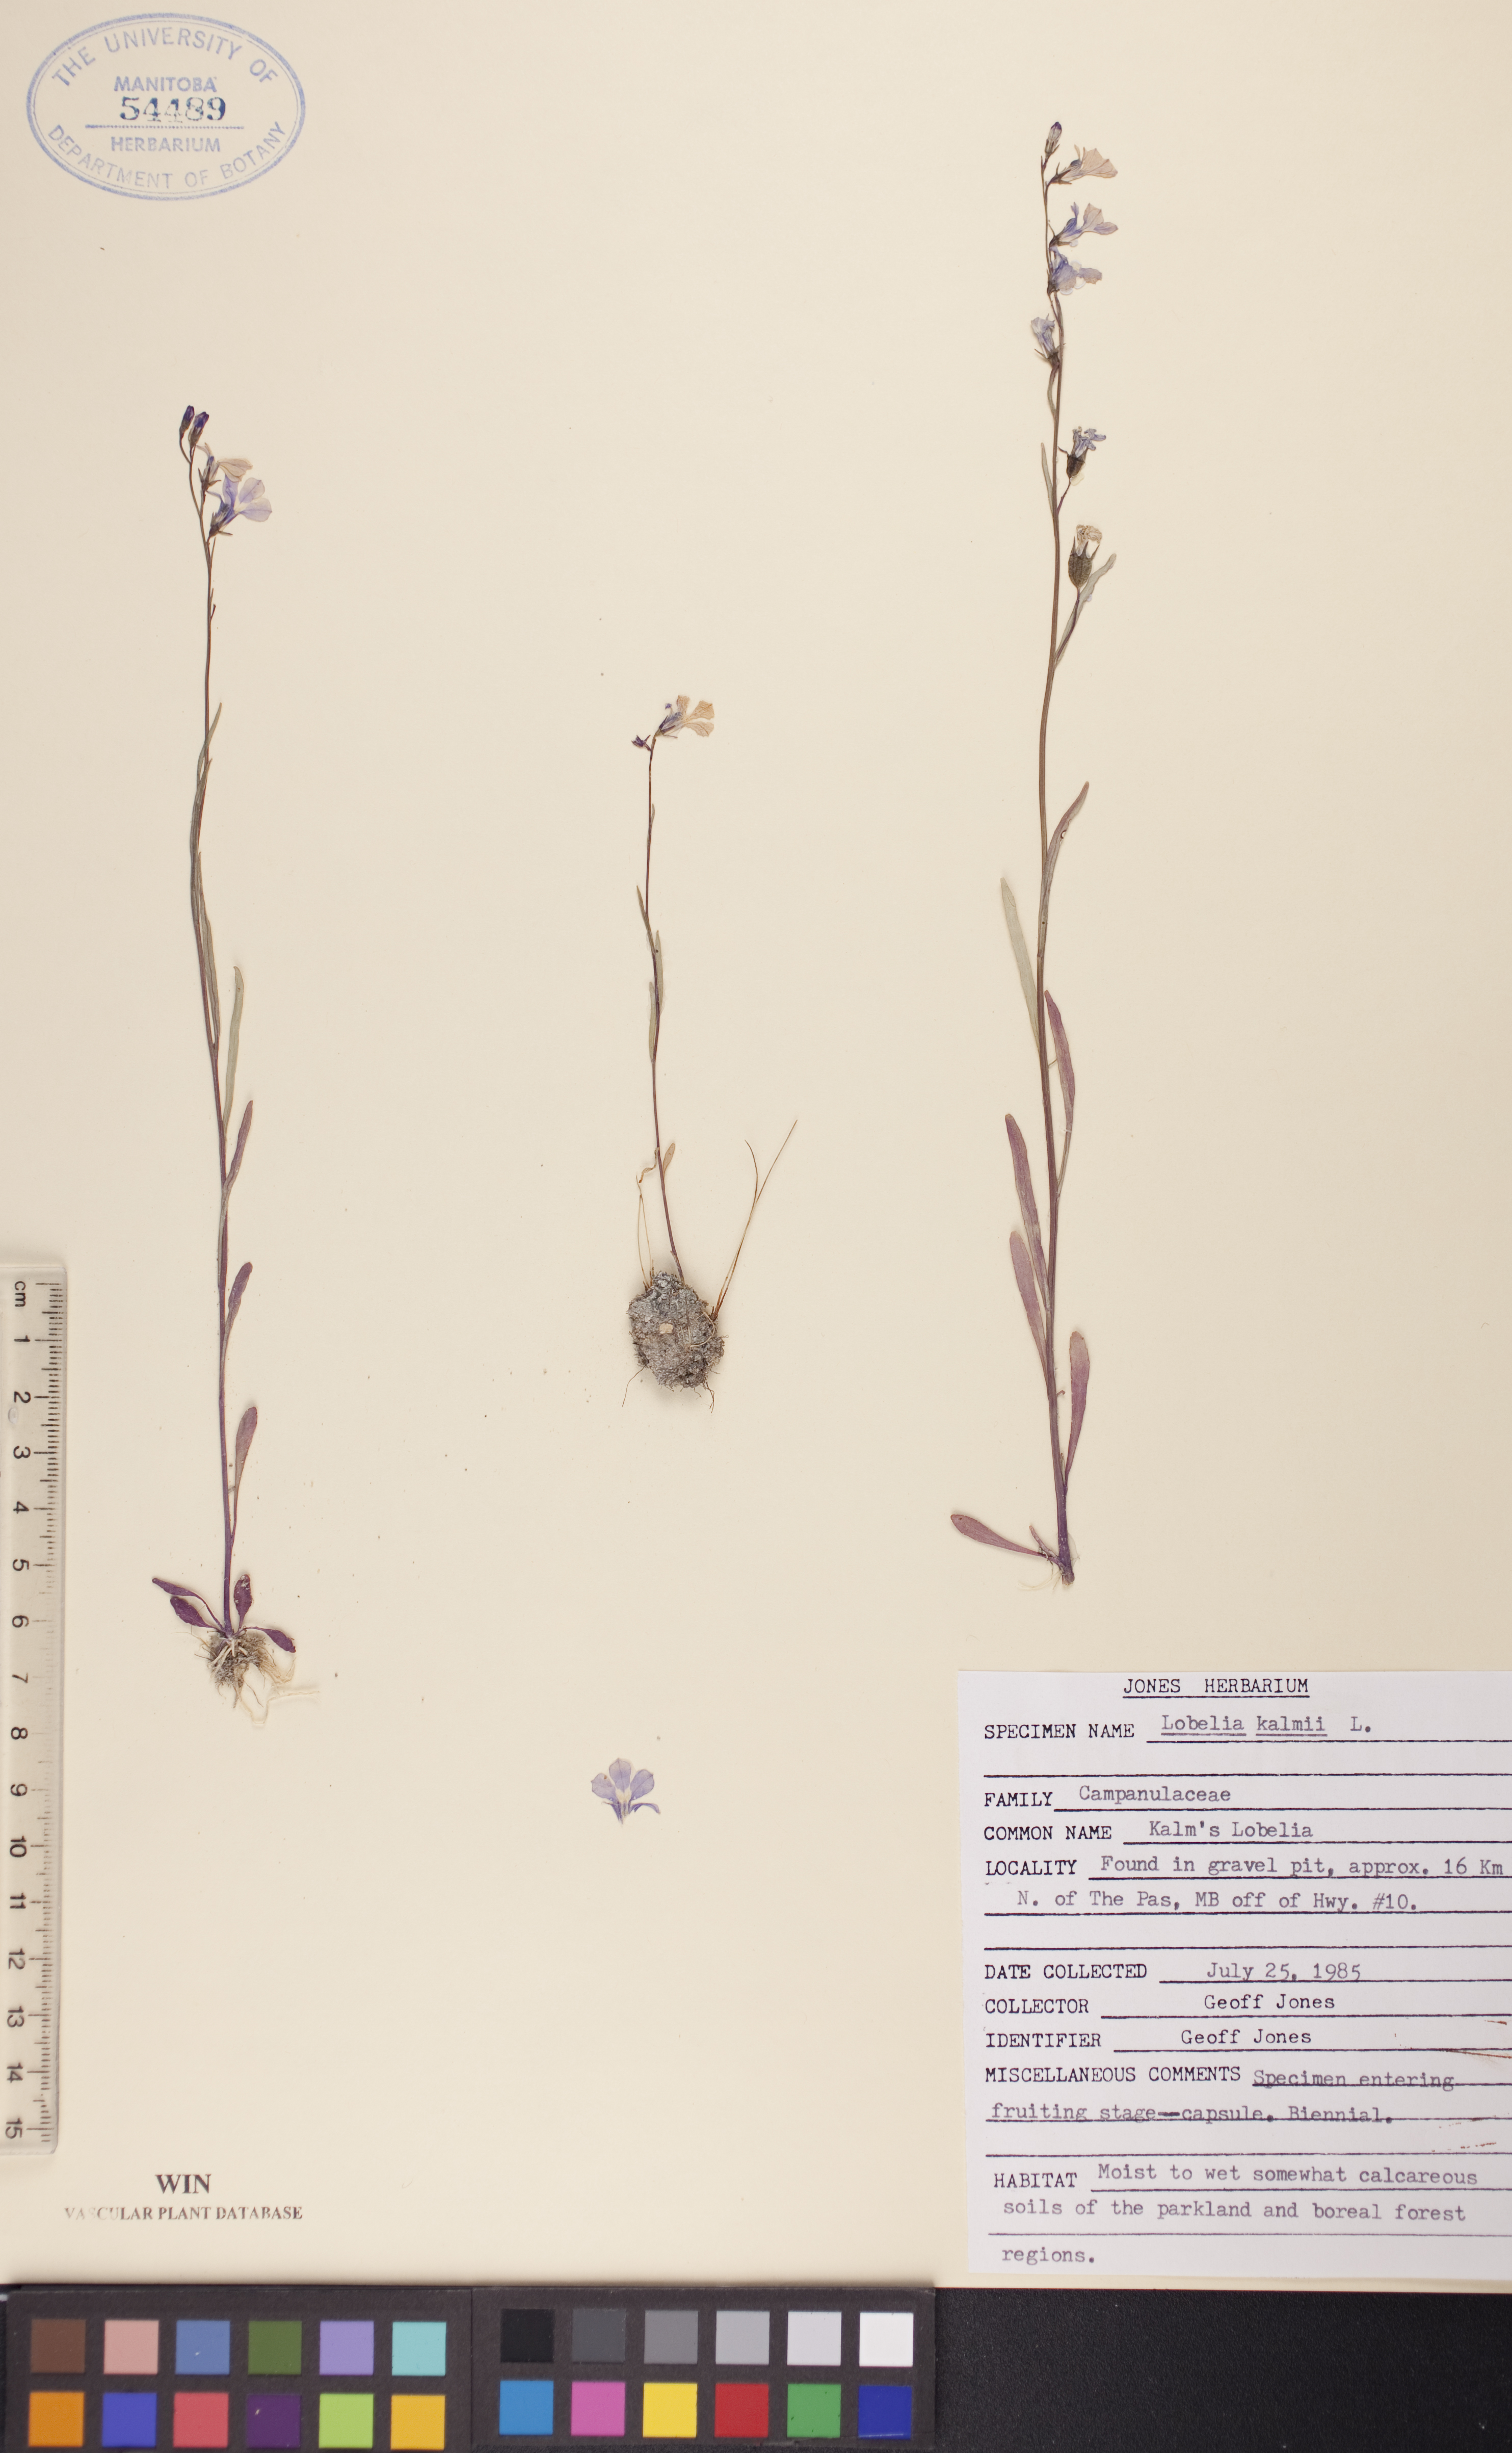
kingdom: Plantae
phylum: Tracheophyta
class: Magnoliopsida
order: Asterales
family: Campanulaceae
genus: Lobelia
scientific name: Lobelia kalmii
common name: Kalm's lobelia
